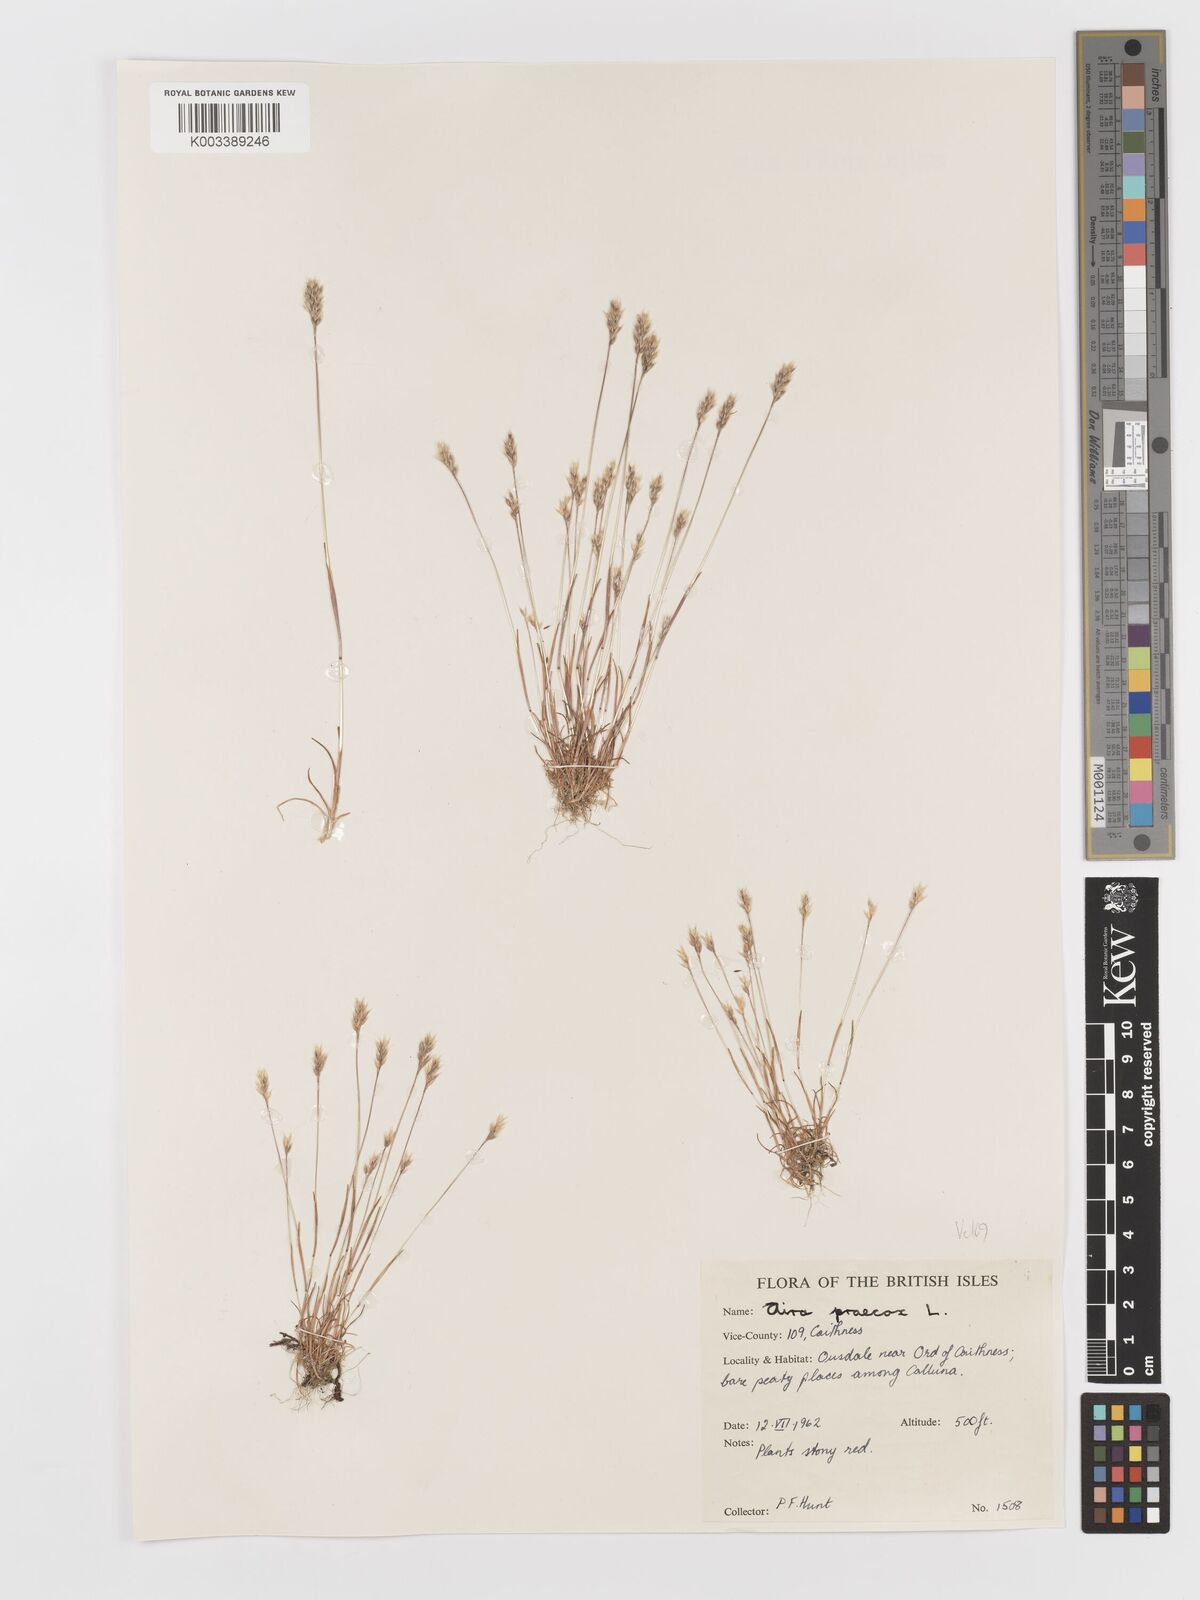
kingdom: Plantae
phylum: Tracheophyta
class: Liliopsida
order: Poales
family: Poaceae
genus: Aira
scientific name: Aira praecox
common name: Early hair-grass
